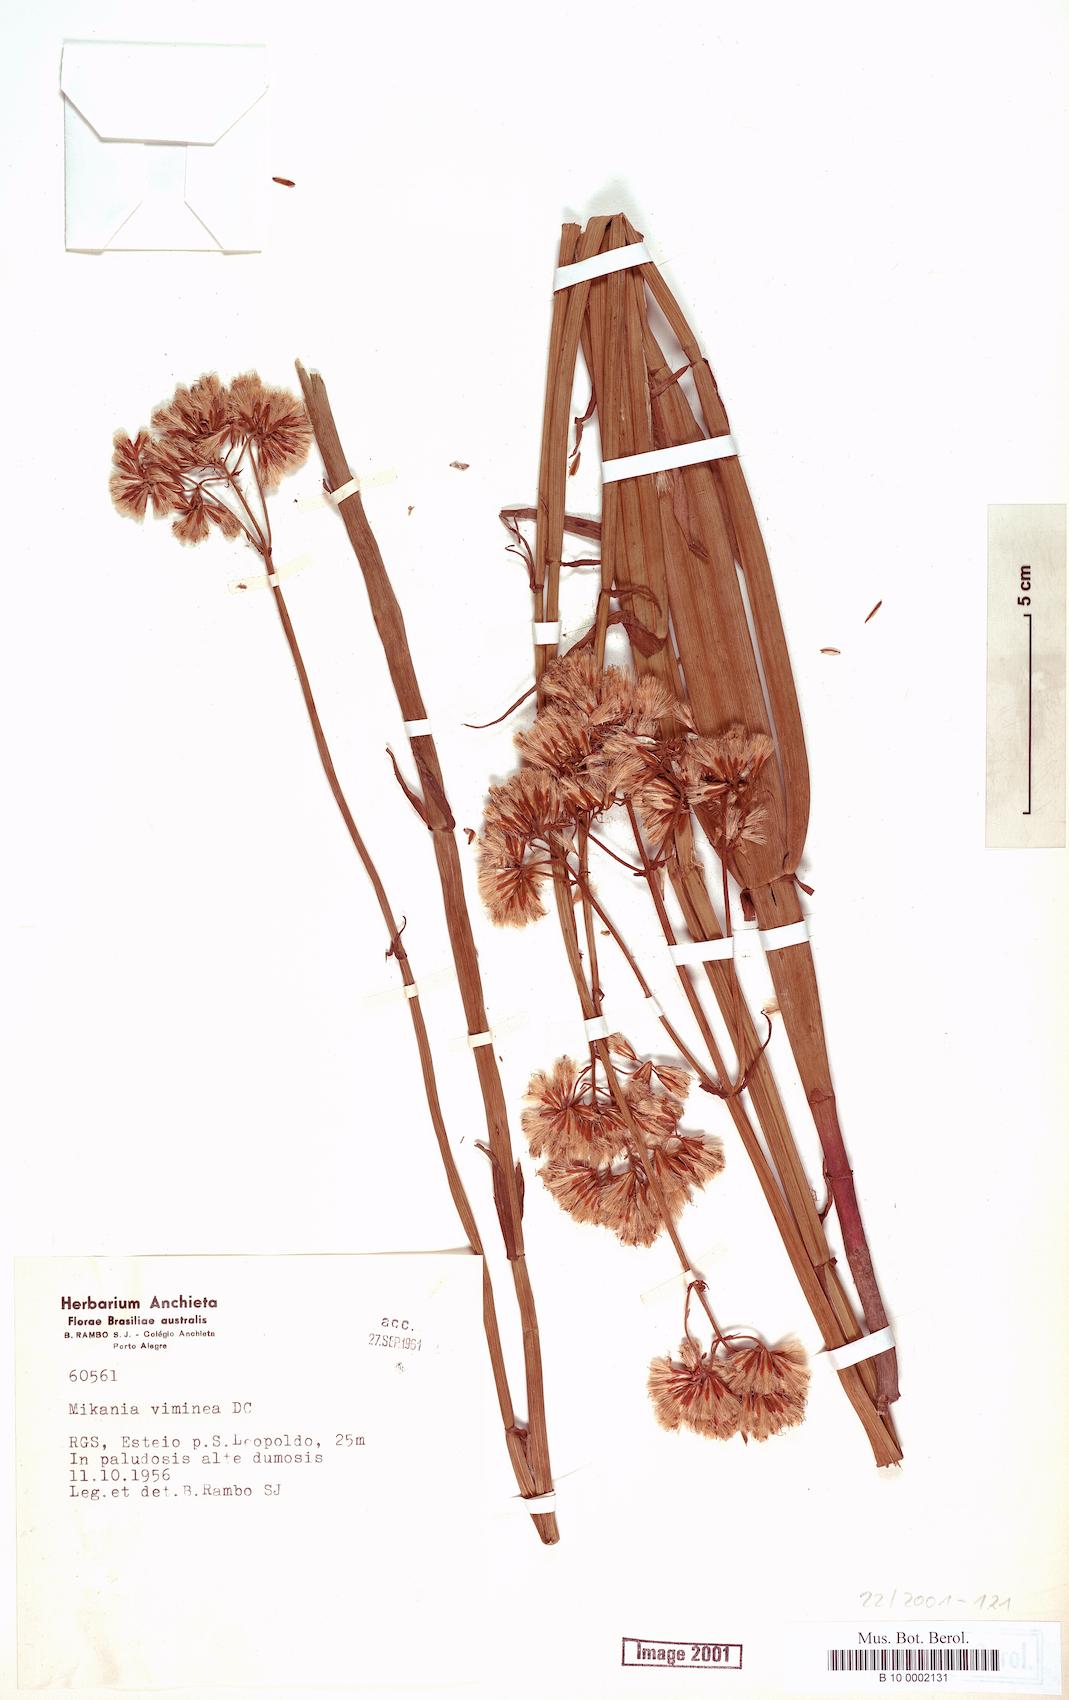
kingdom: Plantae
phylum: Tracheophyta
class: Magnoliopsida
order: Asterales
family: Asteraceae
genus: Mikania
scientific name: Mikania viminea
